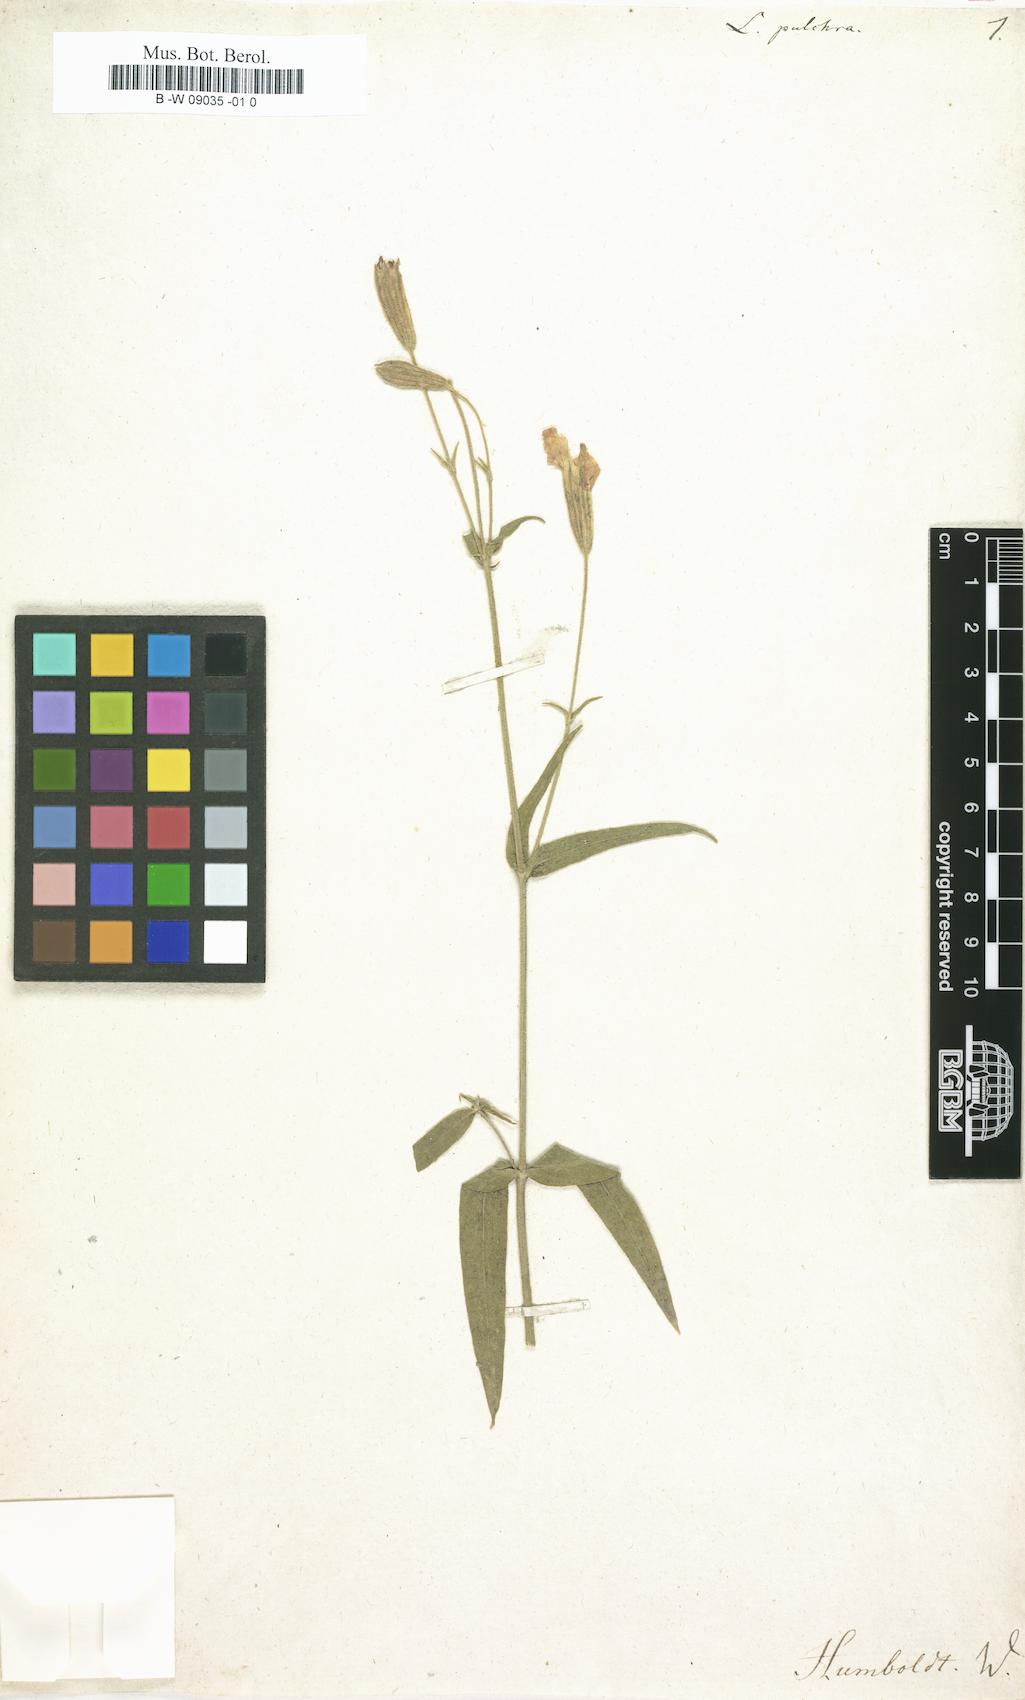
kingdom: Plantae
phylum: Tracheophyta
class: Magnoliopsida
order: Caryophyllales
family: Caryophyllaceae
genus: Silene
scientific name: Silene laciniata
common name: Indian-pink
